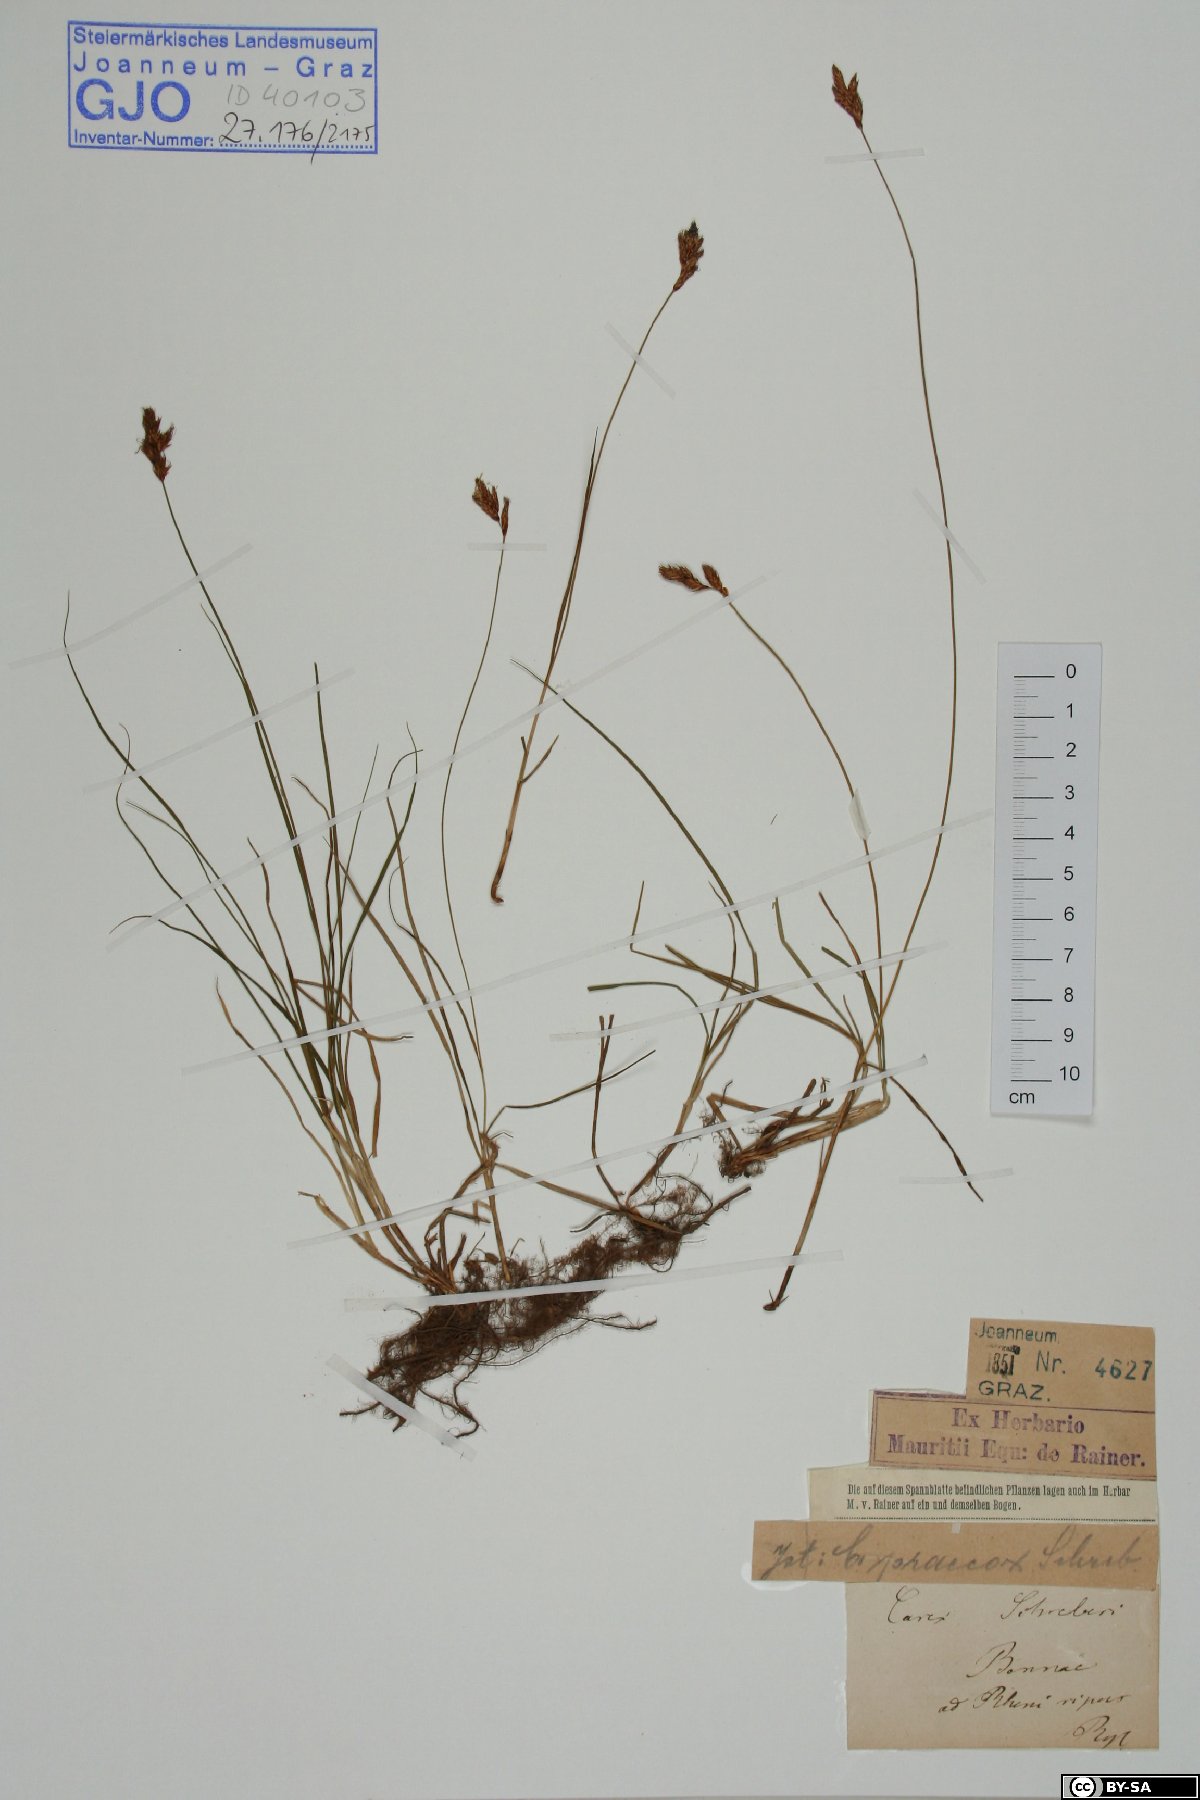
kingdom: Plantae
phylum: Tracheophyta
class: Liliopsida
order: Poales
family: Cyperaceae
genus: Carex
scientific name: Carex praecox
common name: Early sedge
